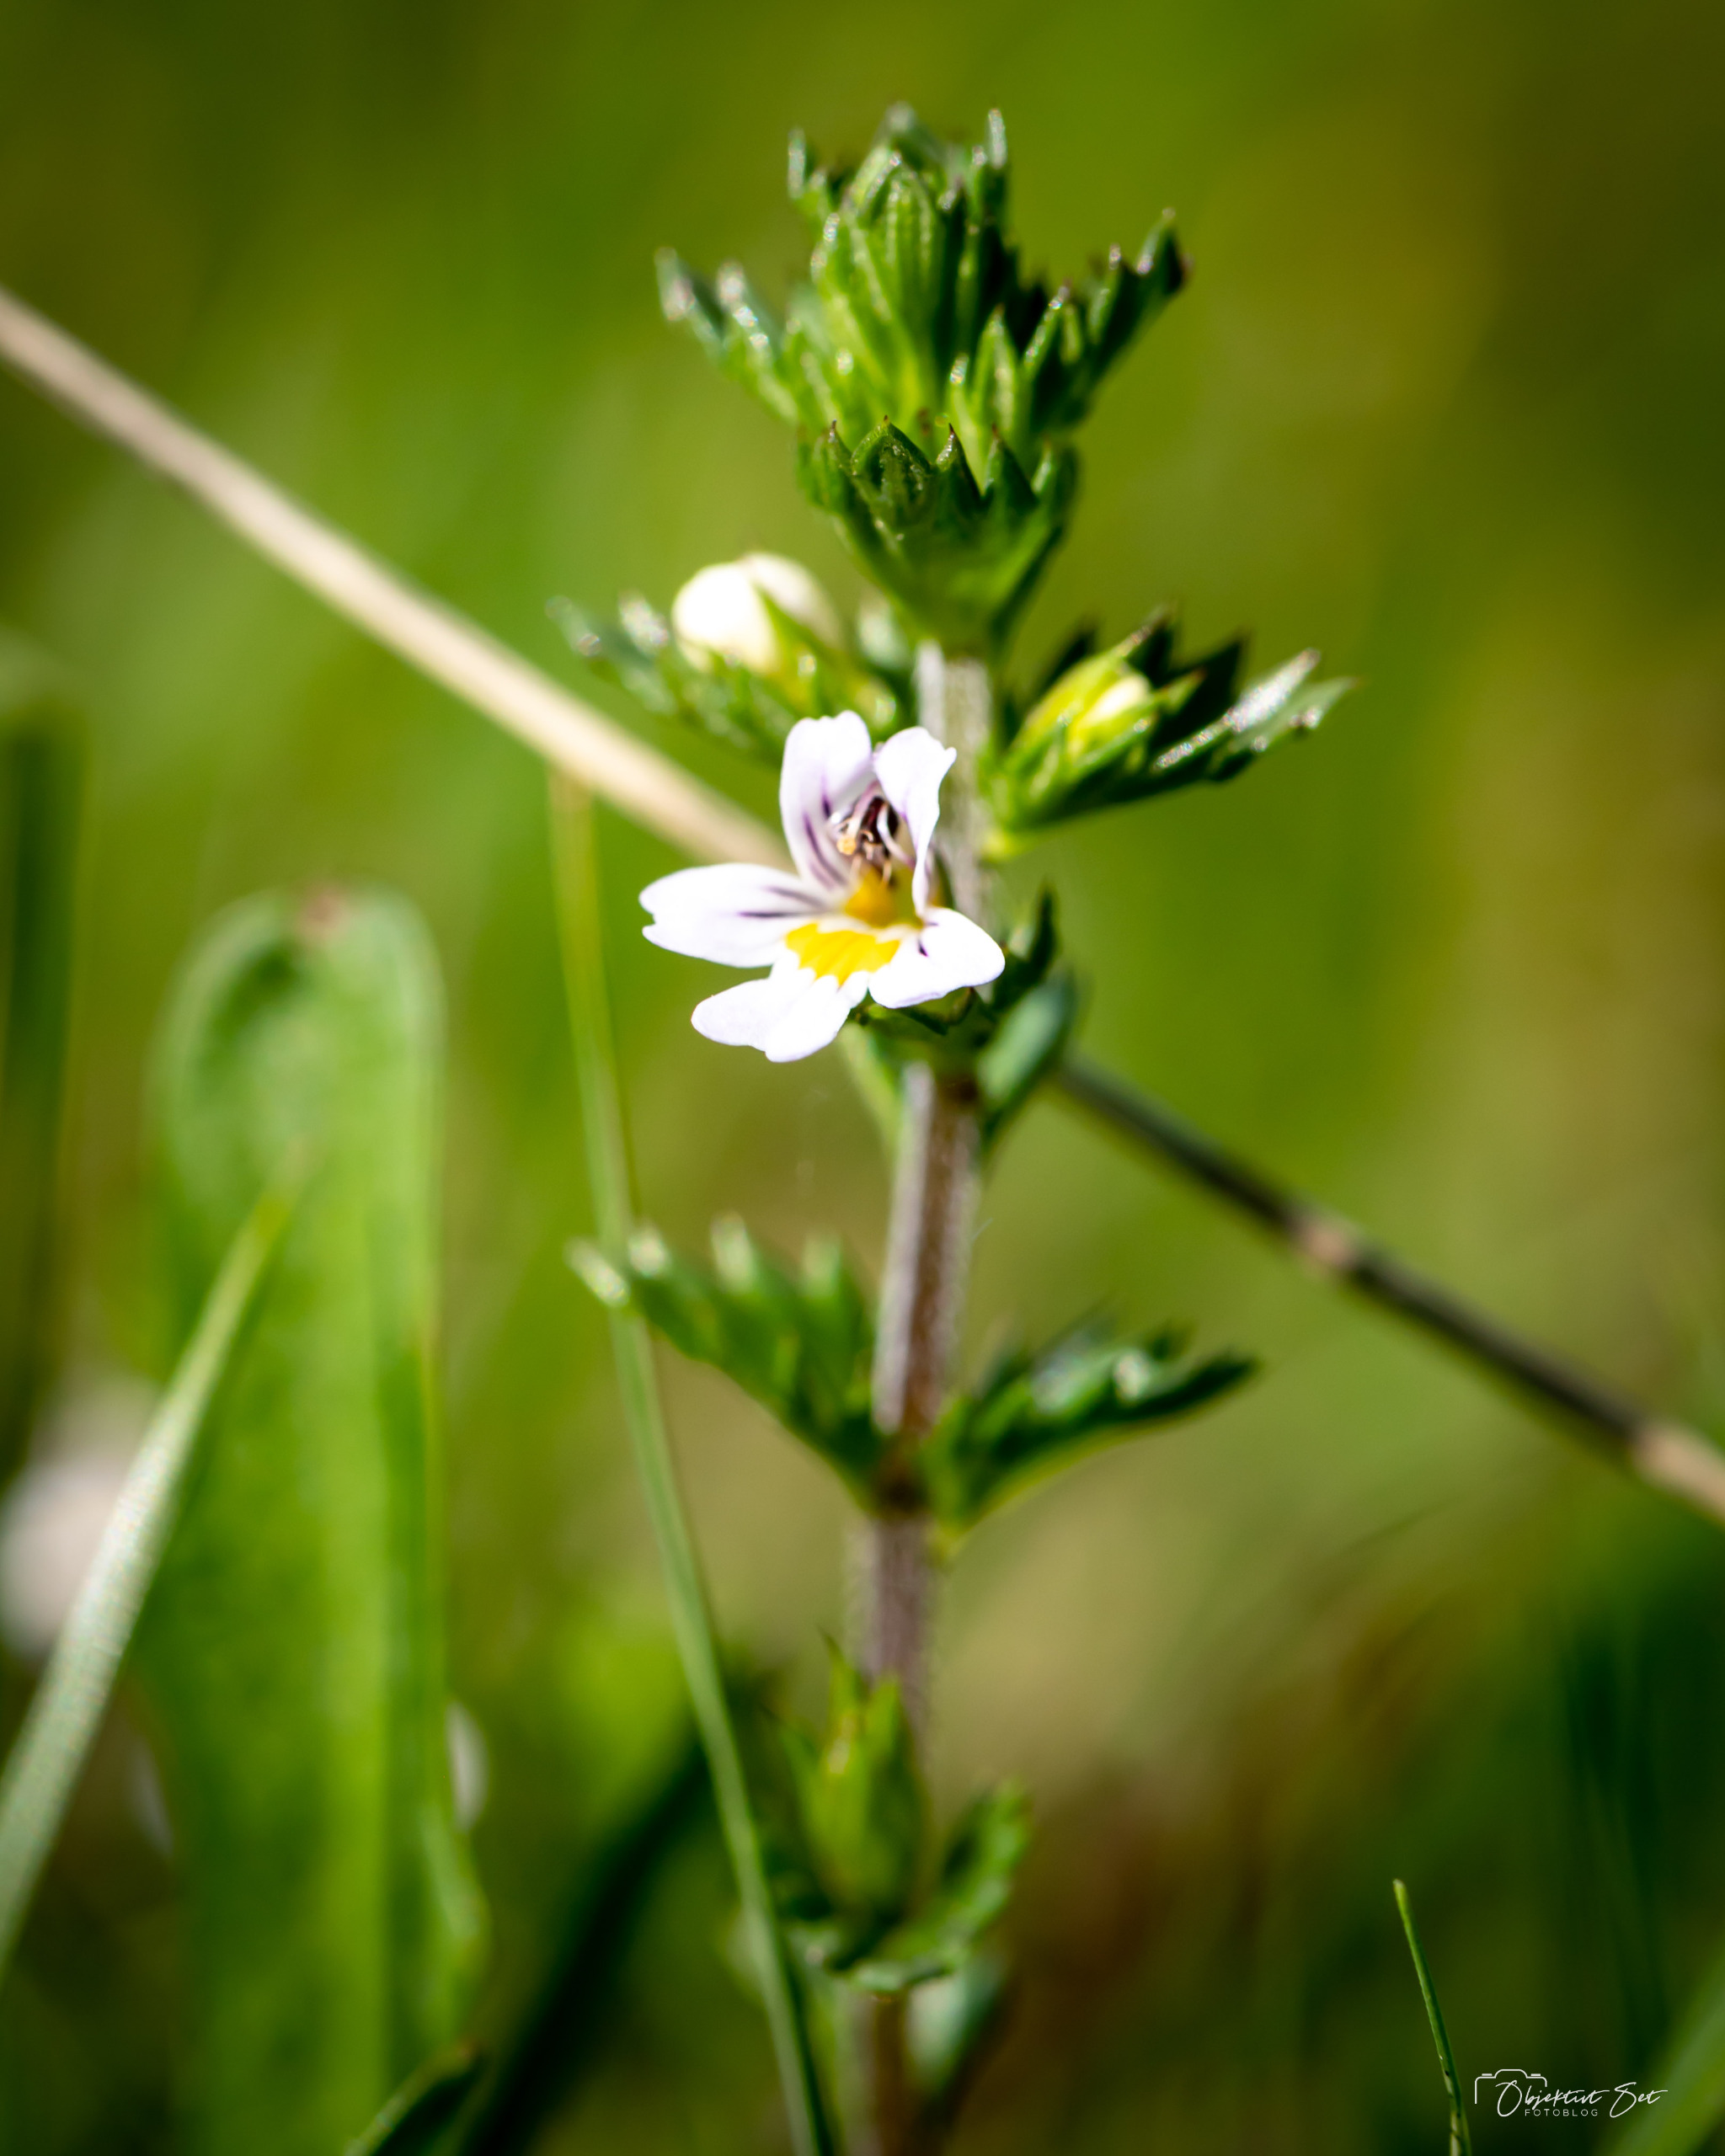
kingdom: Plantae
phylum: Tracheophyta
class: Magnoliopsida
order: Lamiales
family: Orobanchaceae
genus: Euphrasia
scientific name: Euphrasia stricta
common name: Spids øjentrøst
